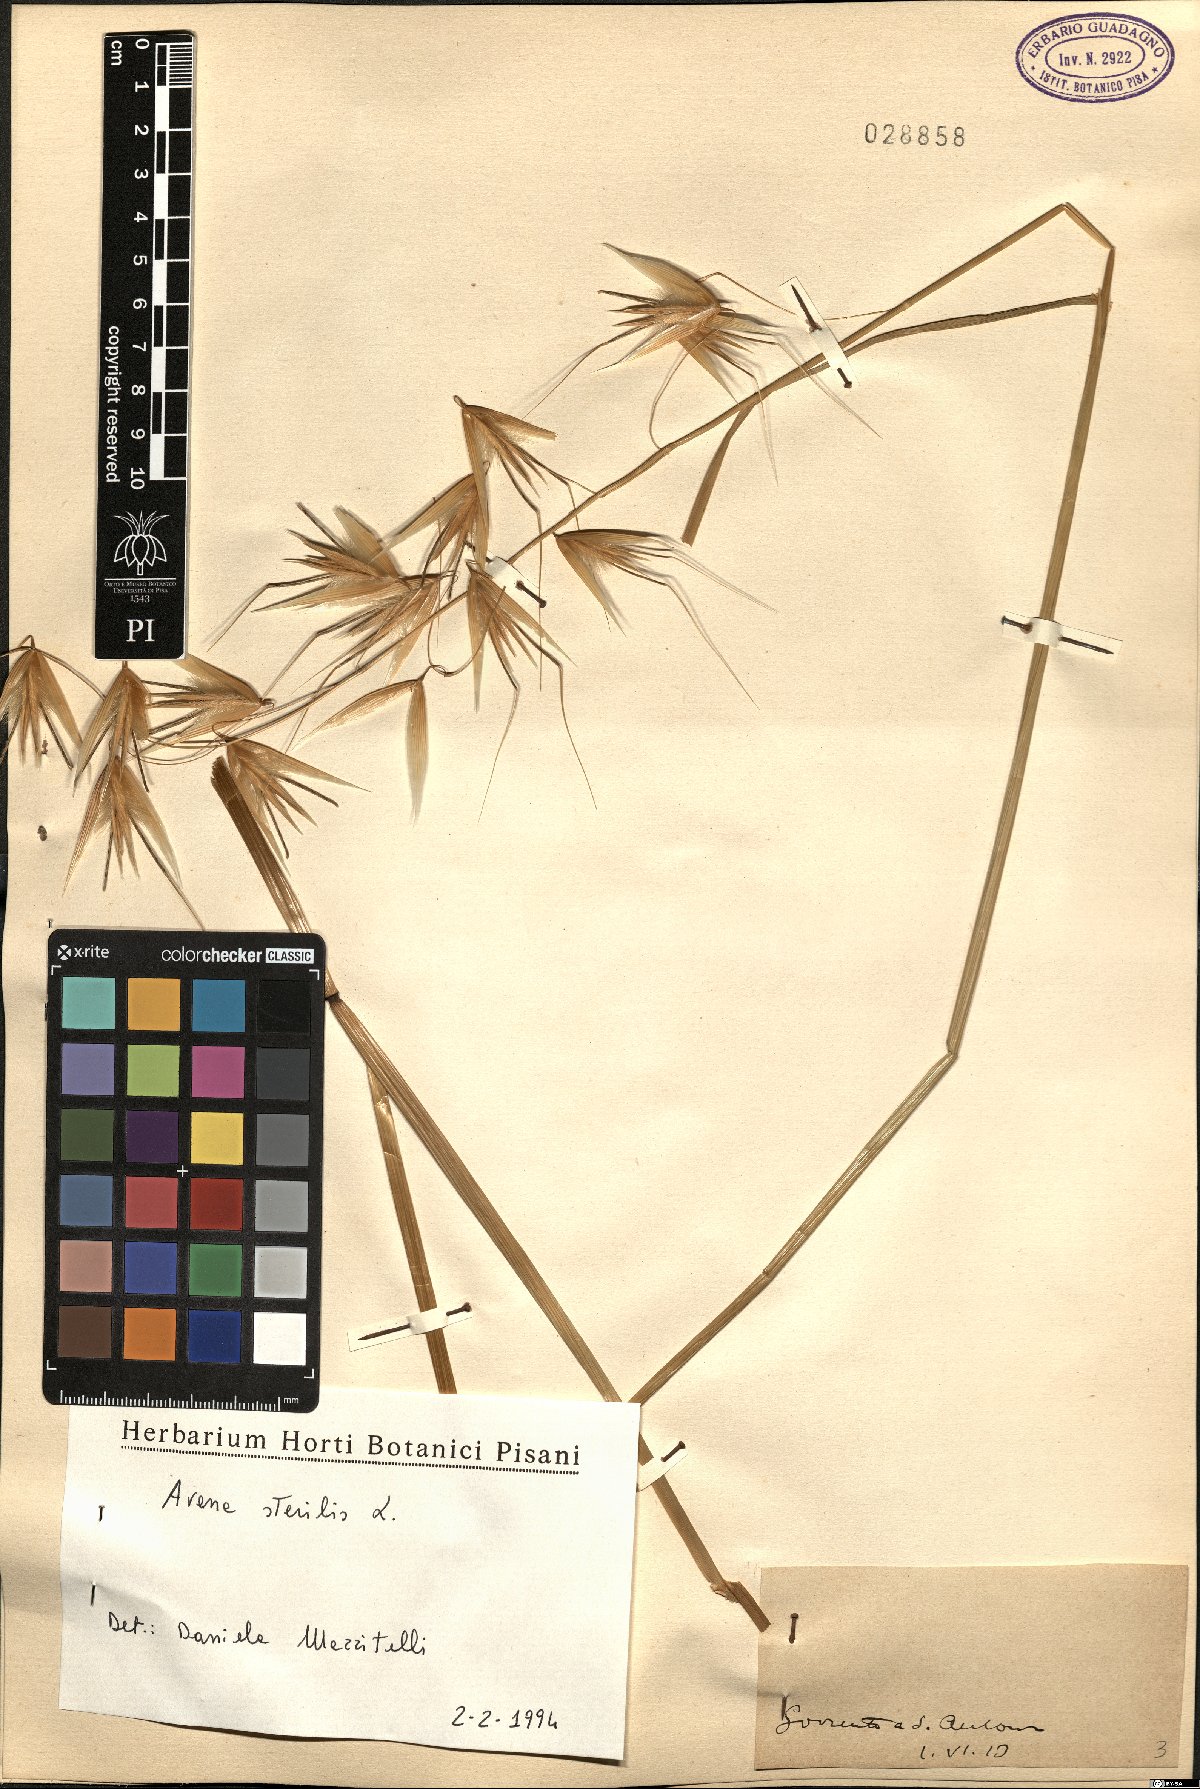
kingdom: Plantae
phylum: Tracheophyta
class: Liliopsida
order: Poales
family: Poaceae
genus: Avena
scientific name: Avena sterilis
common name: Animated oat
